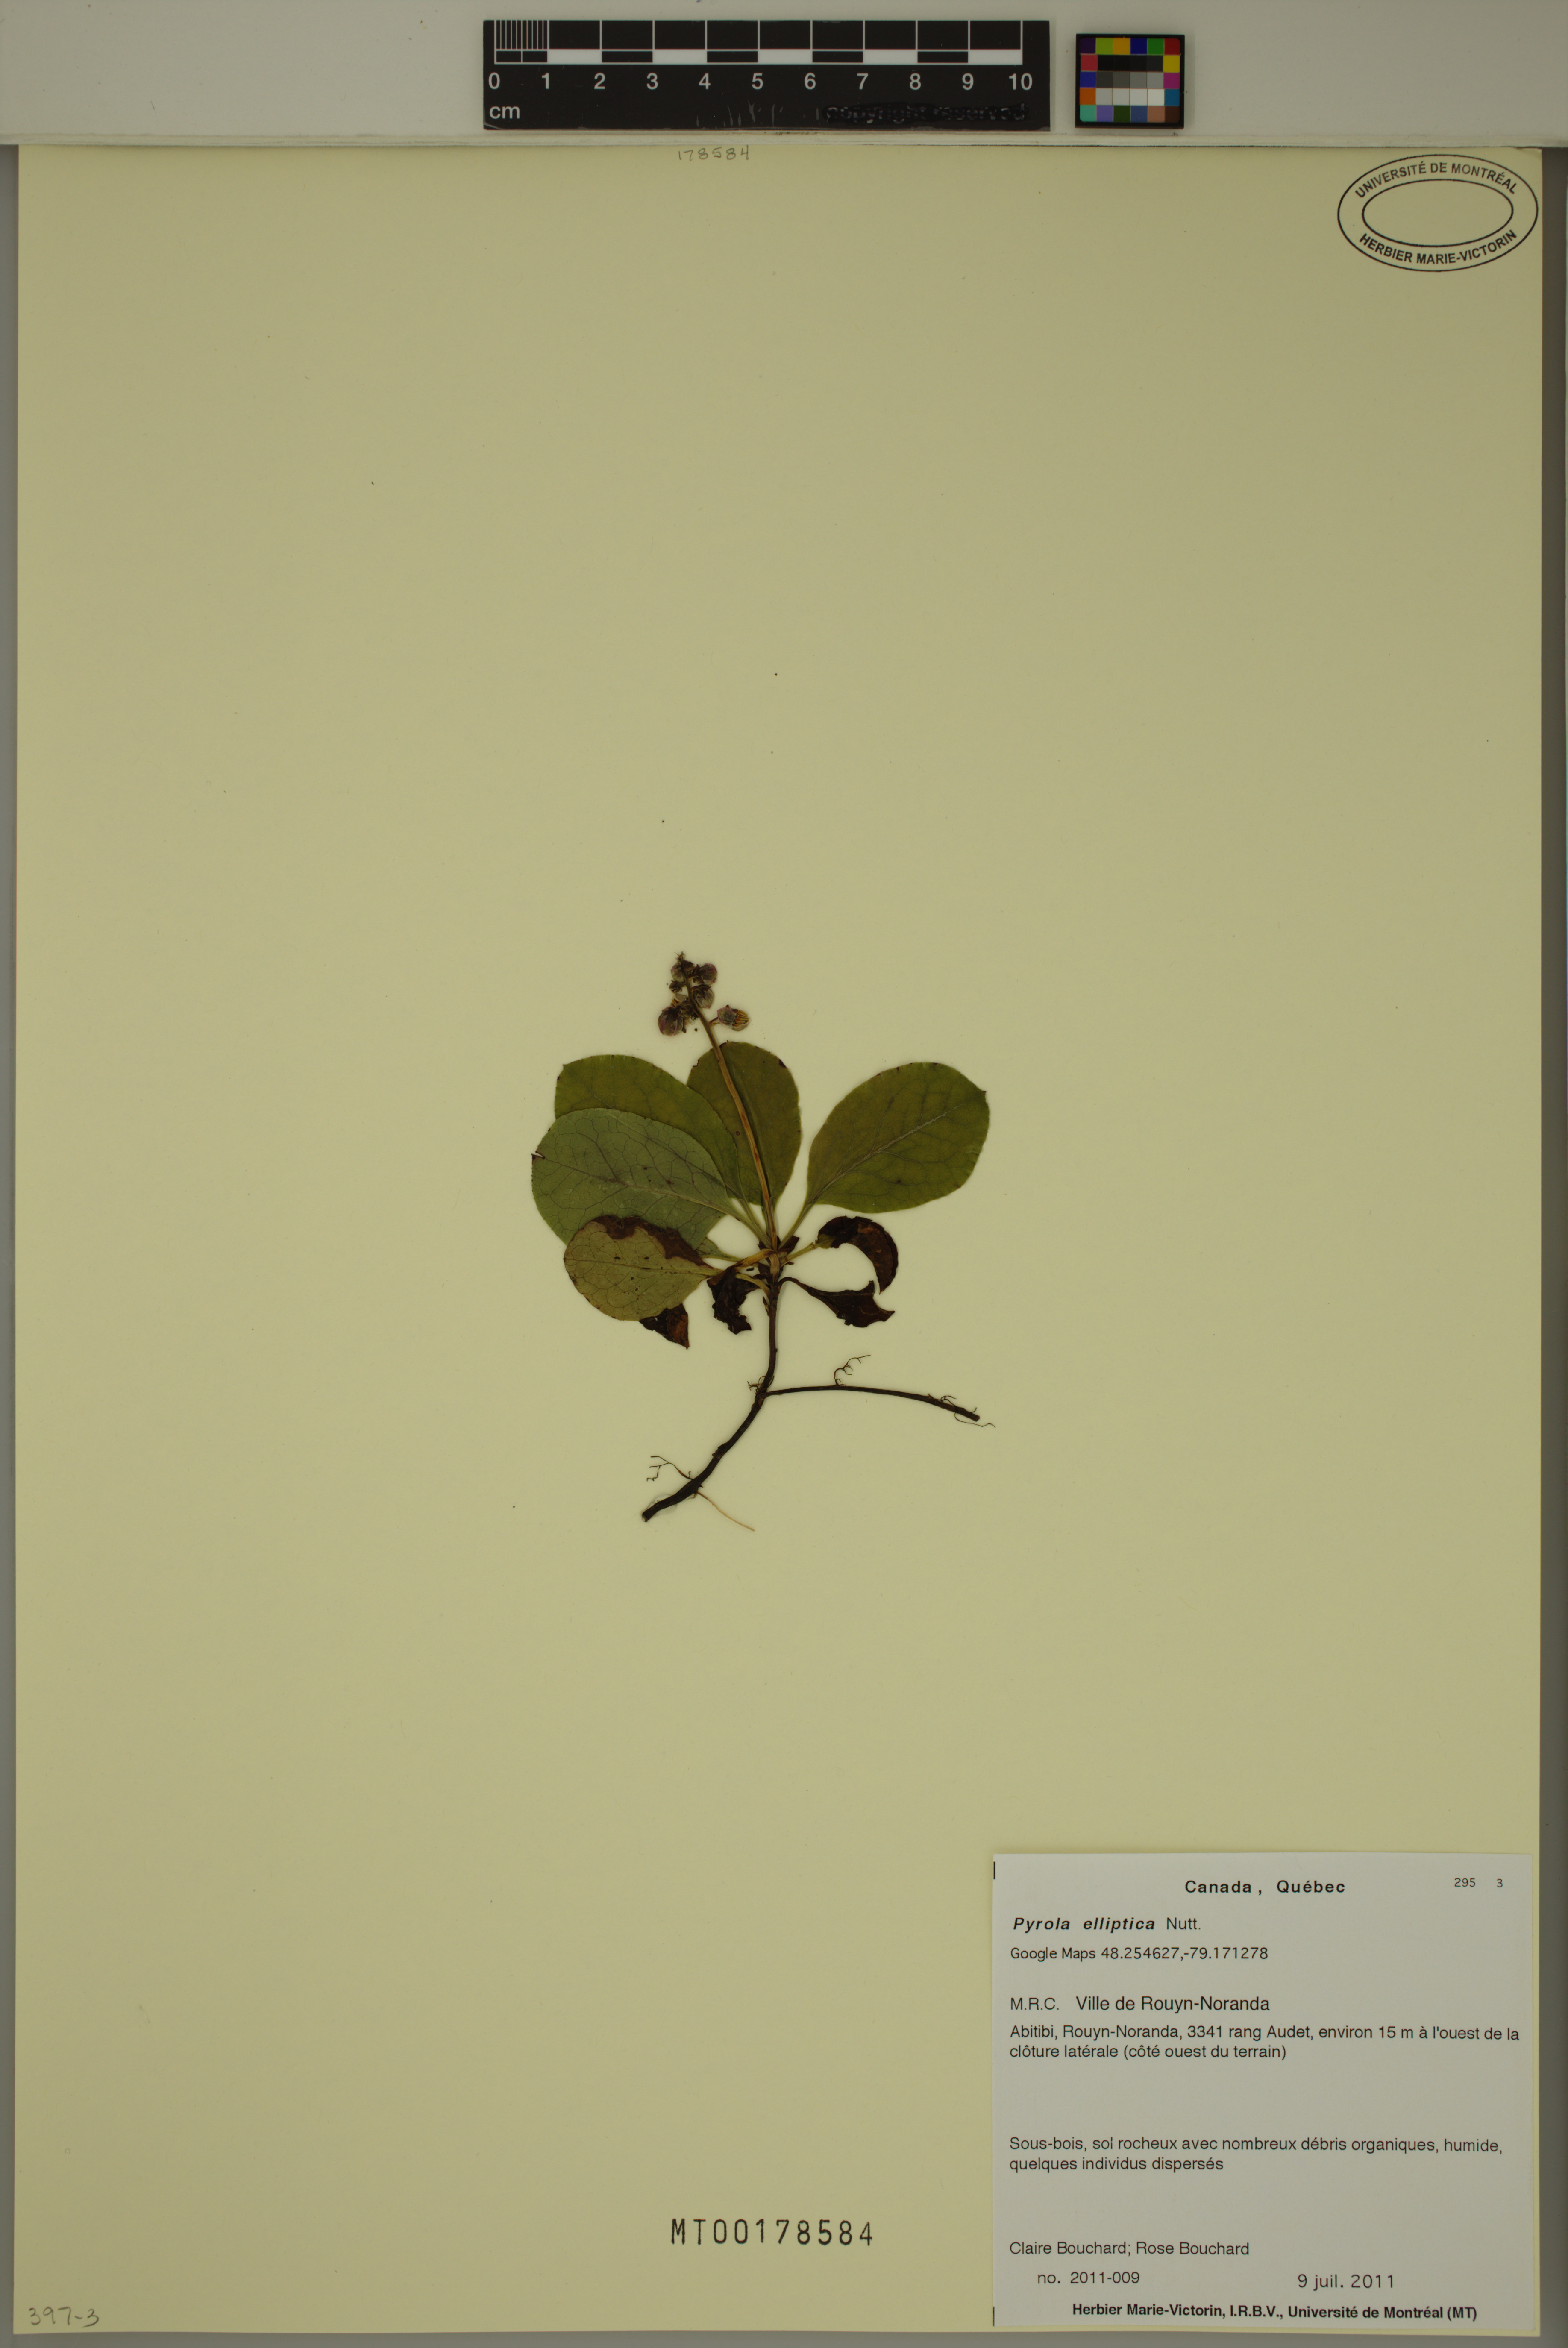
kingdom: Plantae
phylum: Tracheophyta
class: Magnoliopsida
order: Ericales
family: Ericaceae
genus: Pyrola
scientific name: Pyrola elliptica
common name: Shinleaf
